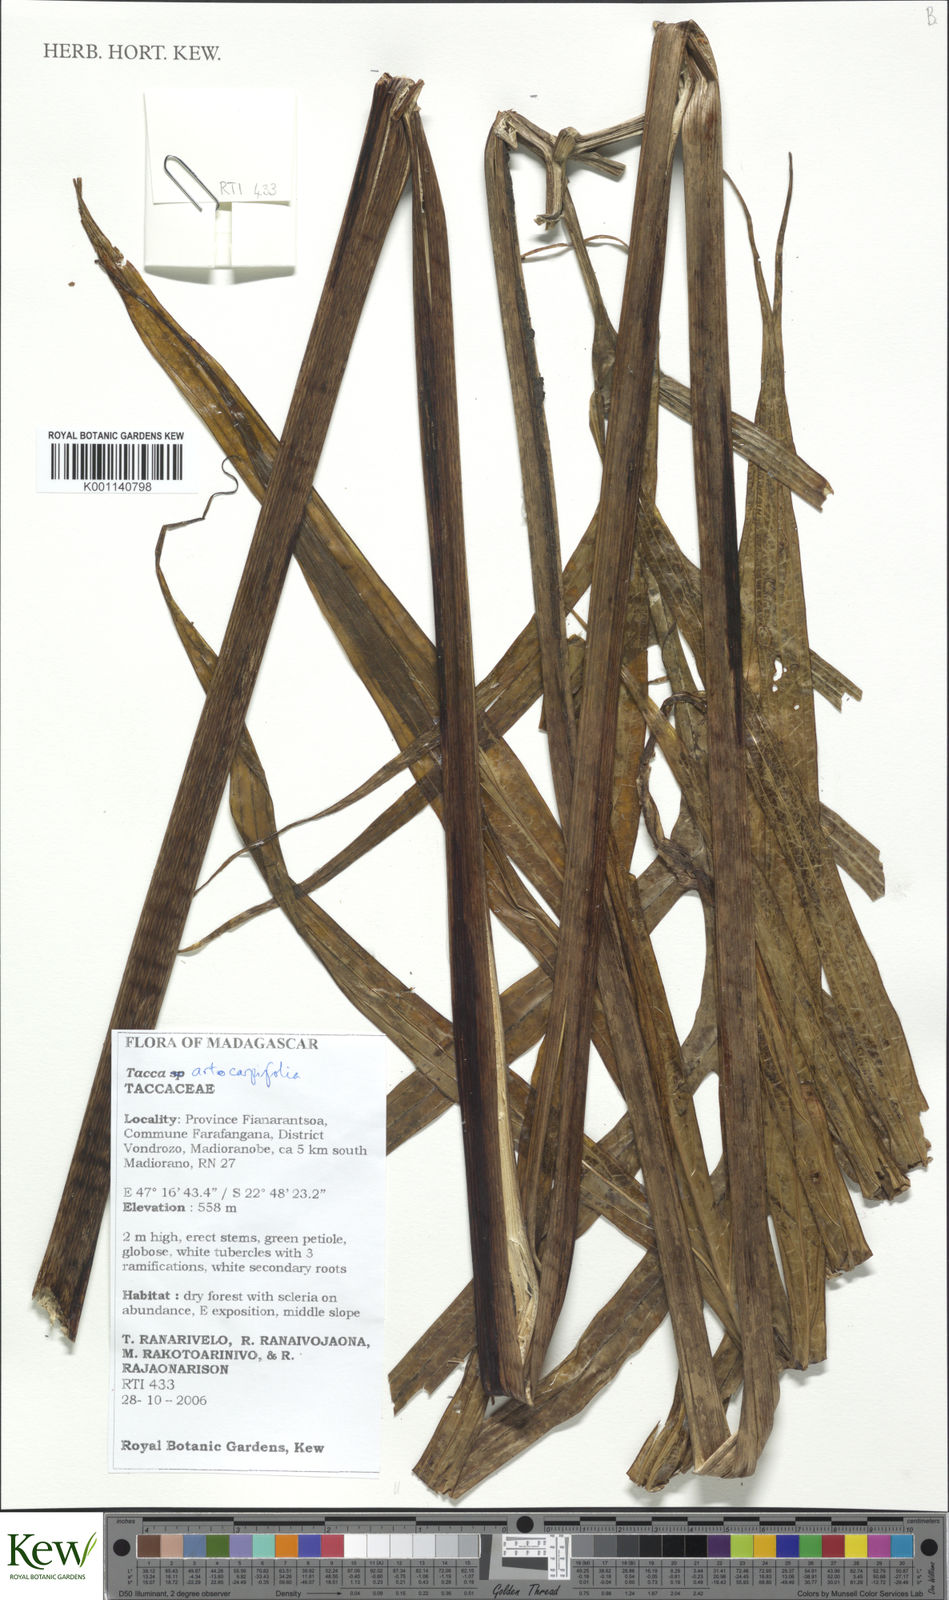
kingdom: Plantae
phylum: Tracheophyta
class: Liliopsida
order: Dioscoreales
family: Dioscoreaceae
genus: Tacca
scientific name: Tacca leontopetaloides
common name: Arrowroot
